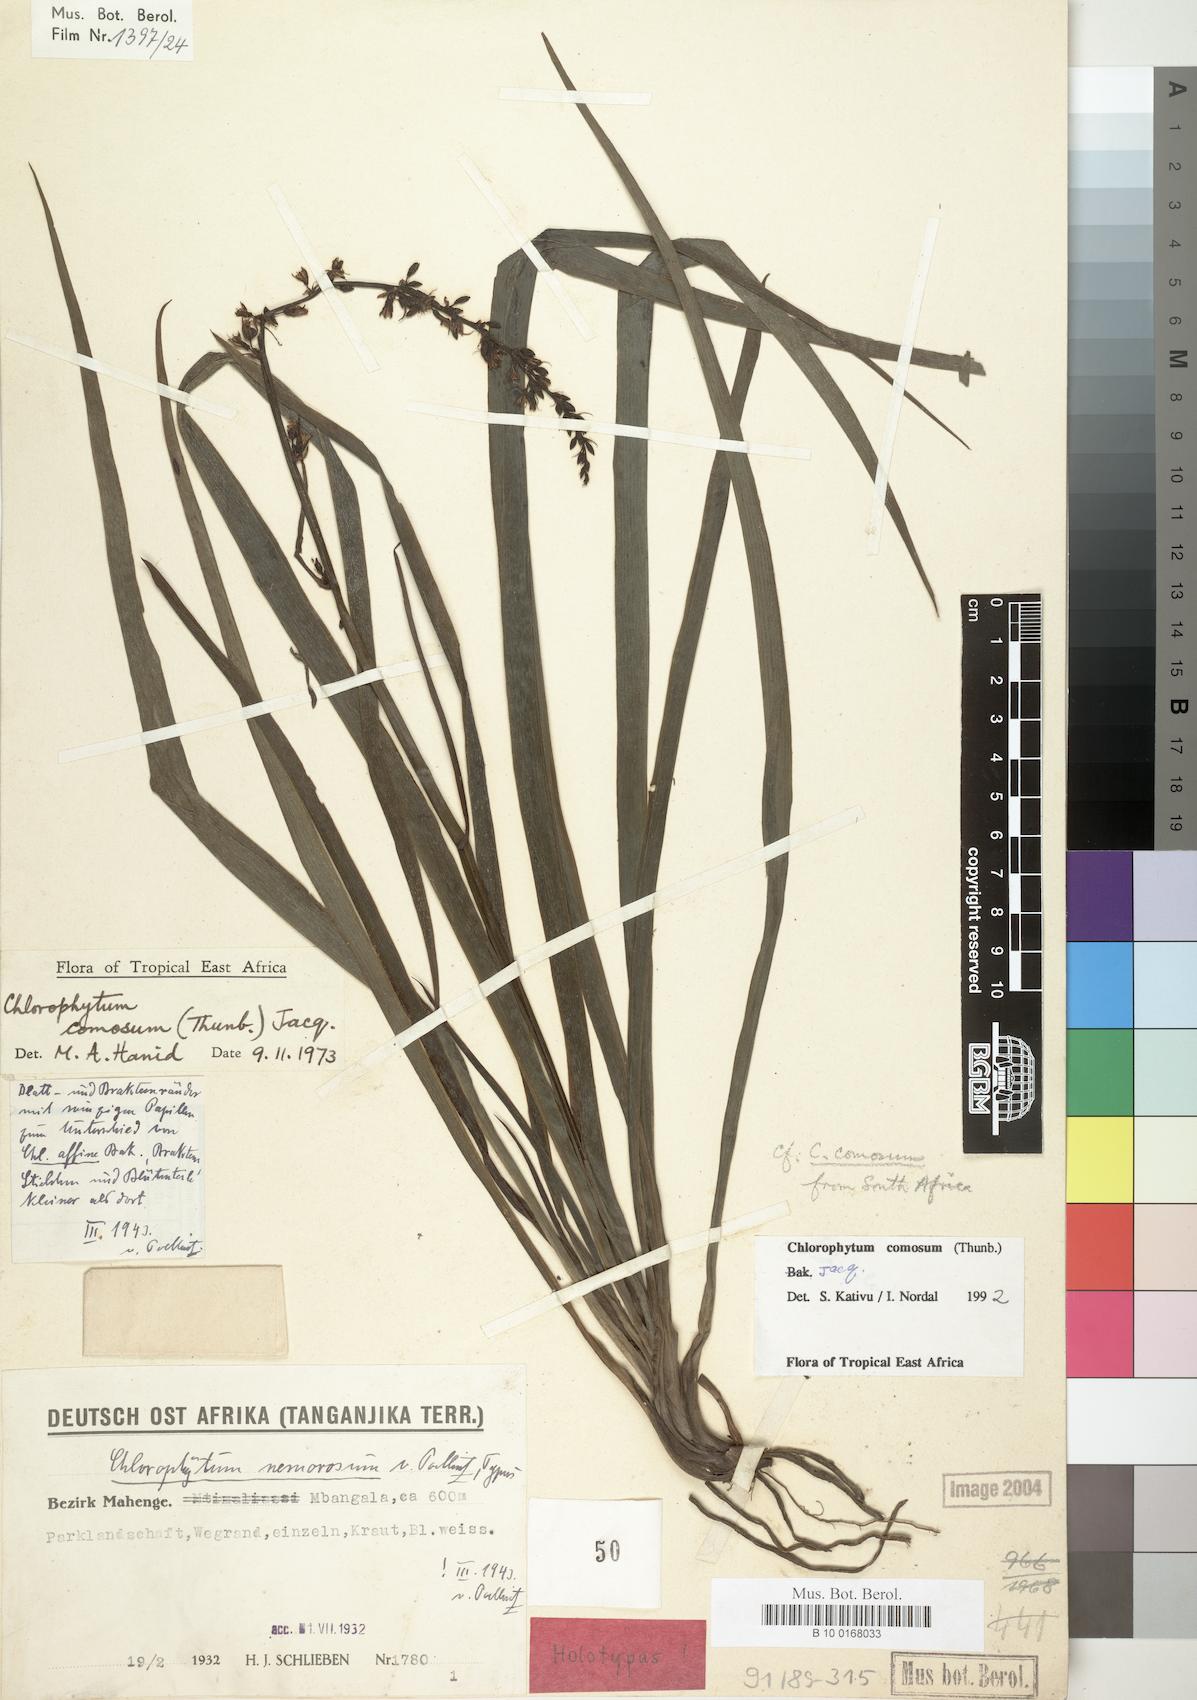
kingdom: Plantae
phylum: Tracheophyta
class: Liliopsida
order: Asparagales
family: Asparagaceae
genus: Chlorophytum
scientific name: Chlorophytum comosum
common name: Spider plant
